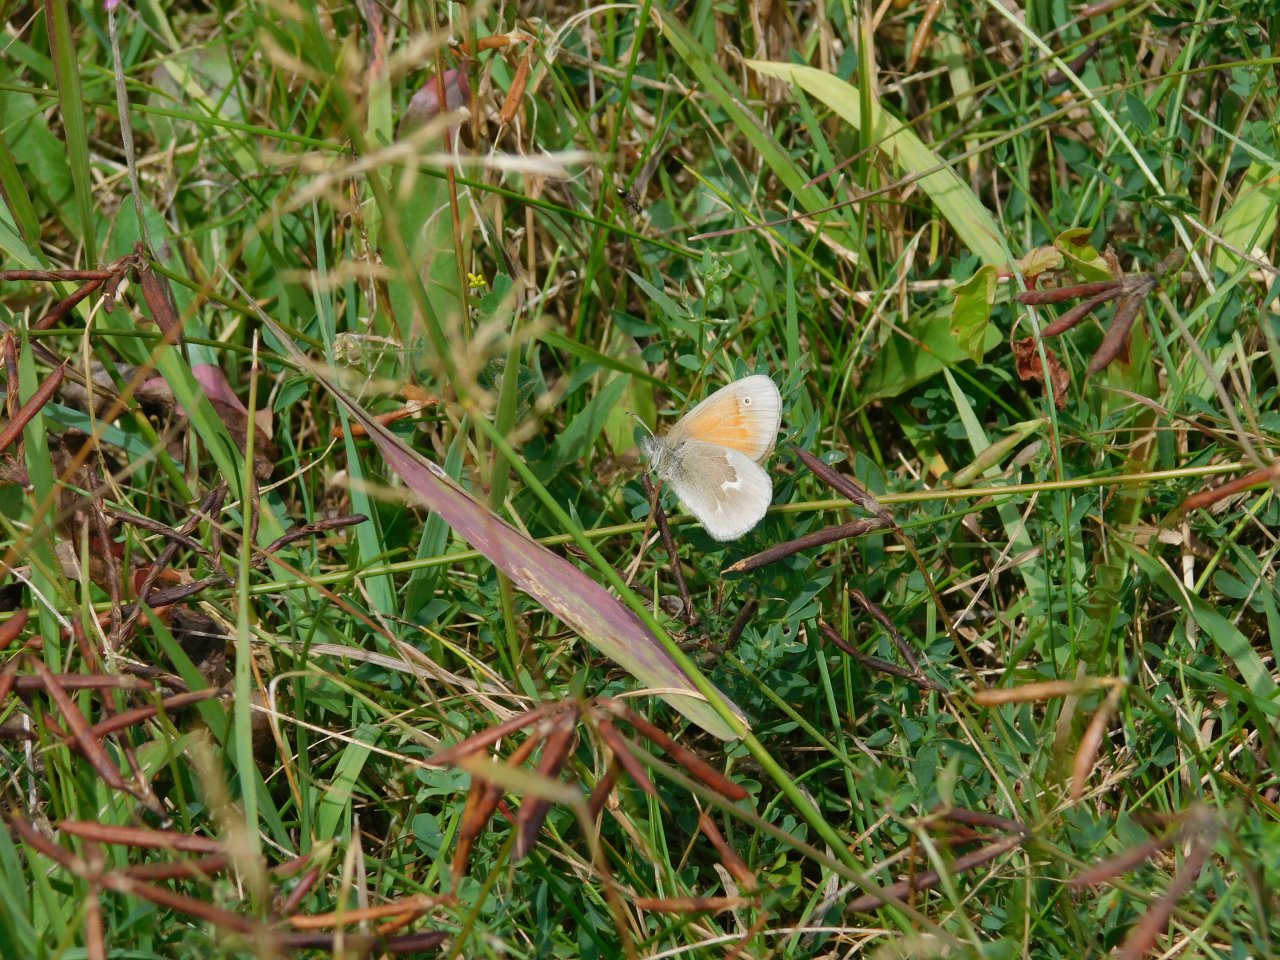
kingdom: Animalia
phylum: Arthropoda
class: Insecta
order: Lepidoptera
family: Nymphalidae
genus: Coenonympha
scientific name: Coenonympha tullia
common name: Large Heath
